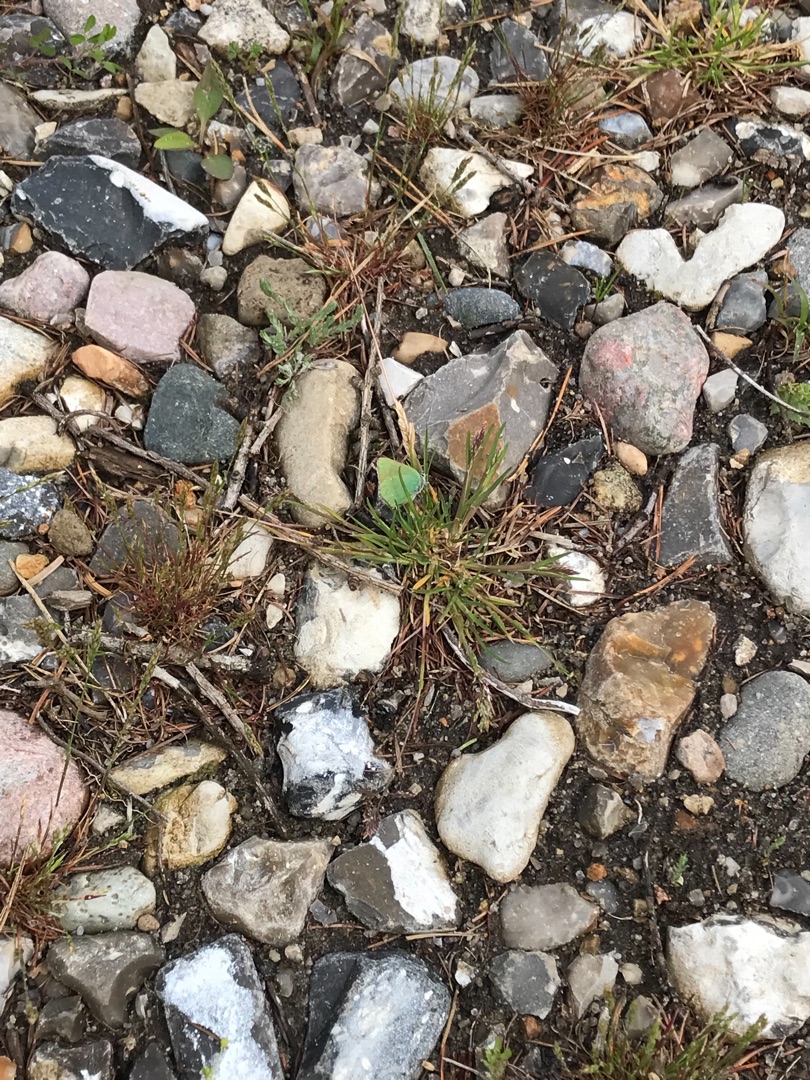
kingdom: Animalia
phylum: Arthropoda
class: Insecta
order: Lepidoptera
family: Lycaenidae
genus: Callophrys
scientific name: Callophrys rubi
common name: Grøn busksommerfugl
